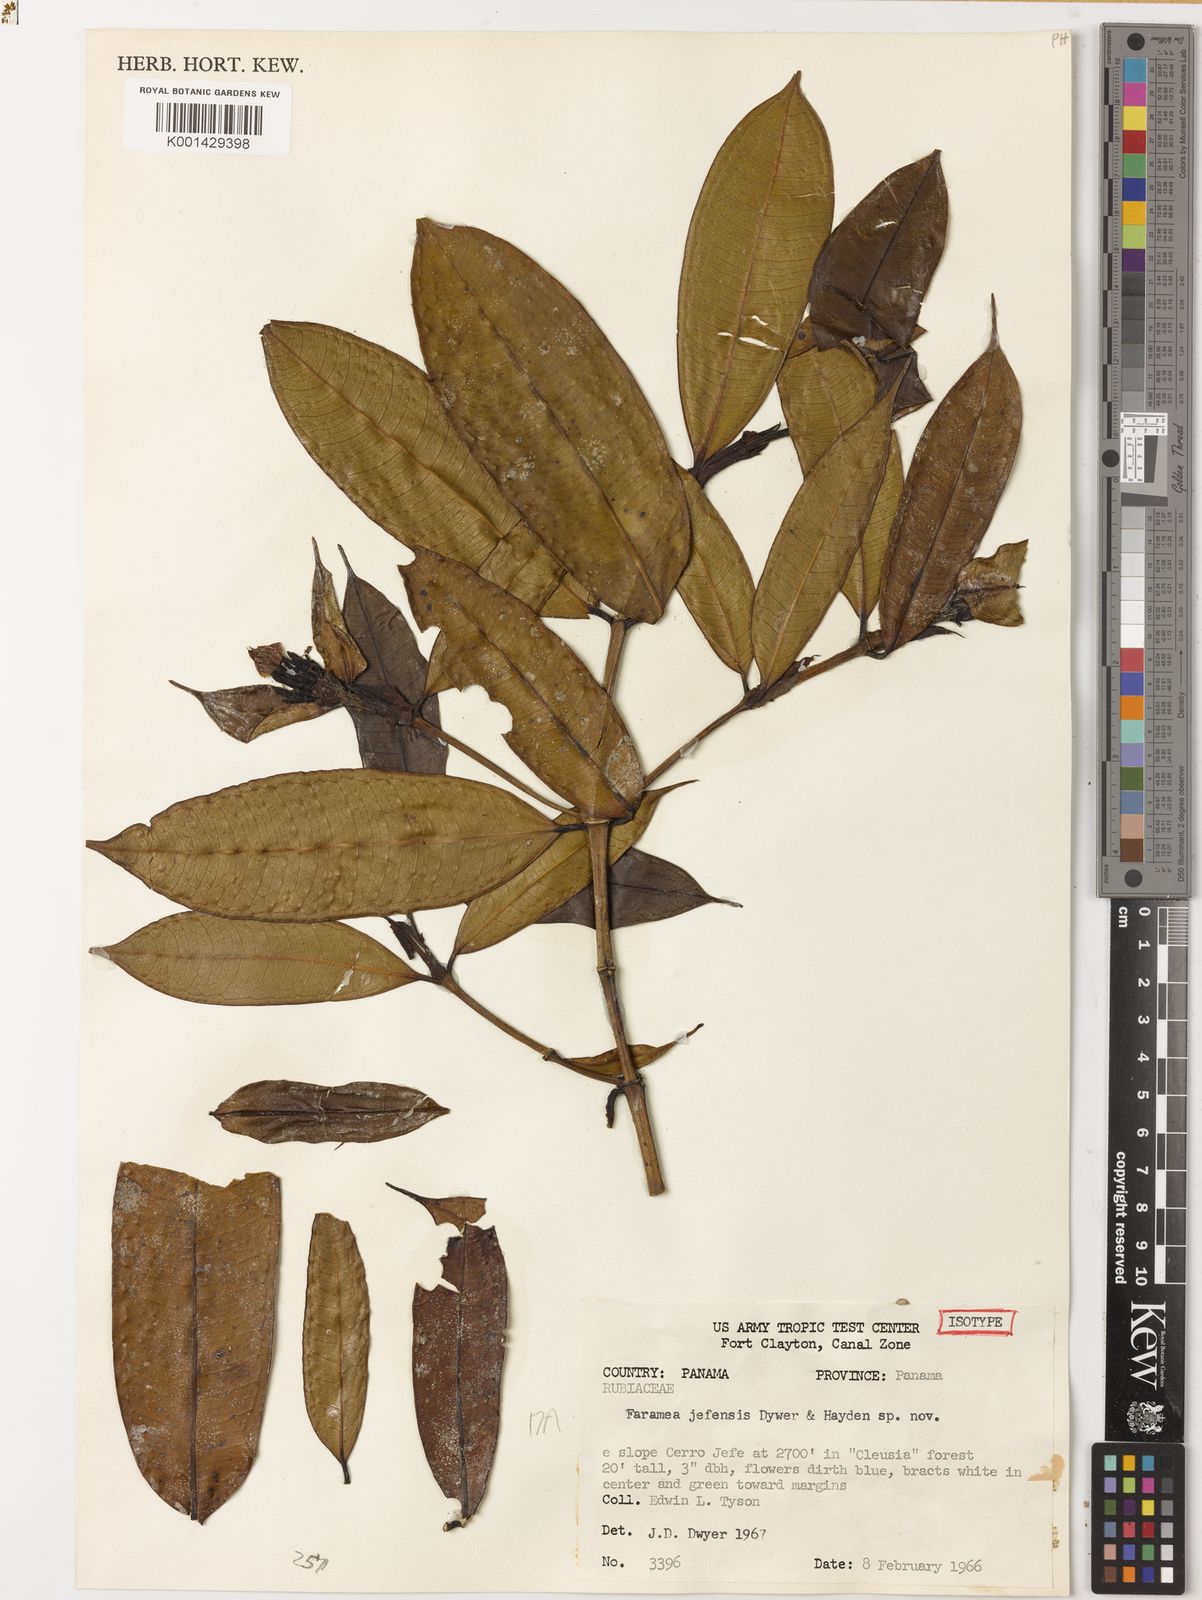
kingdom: Plantae
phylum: Tracheophyta
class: Magnoliopsida
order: Gentianales
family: Rubiaceae
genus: Faramea
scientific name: Faramea calophylla
